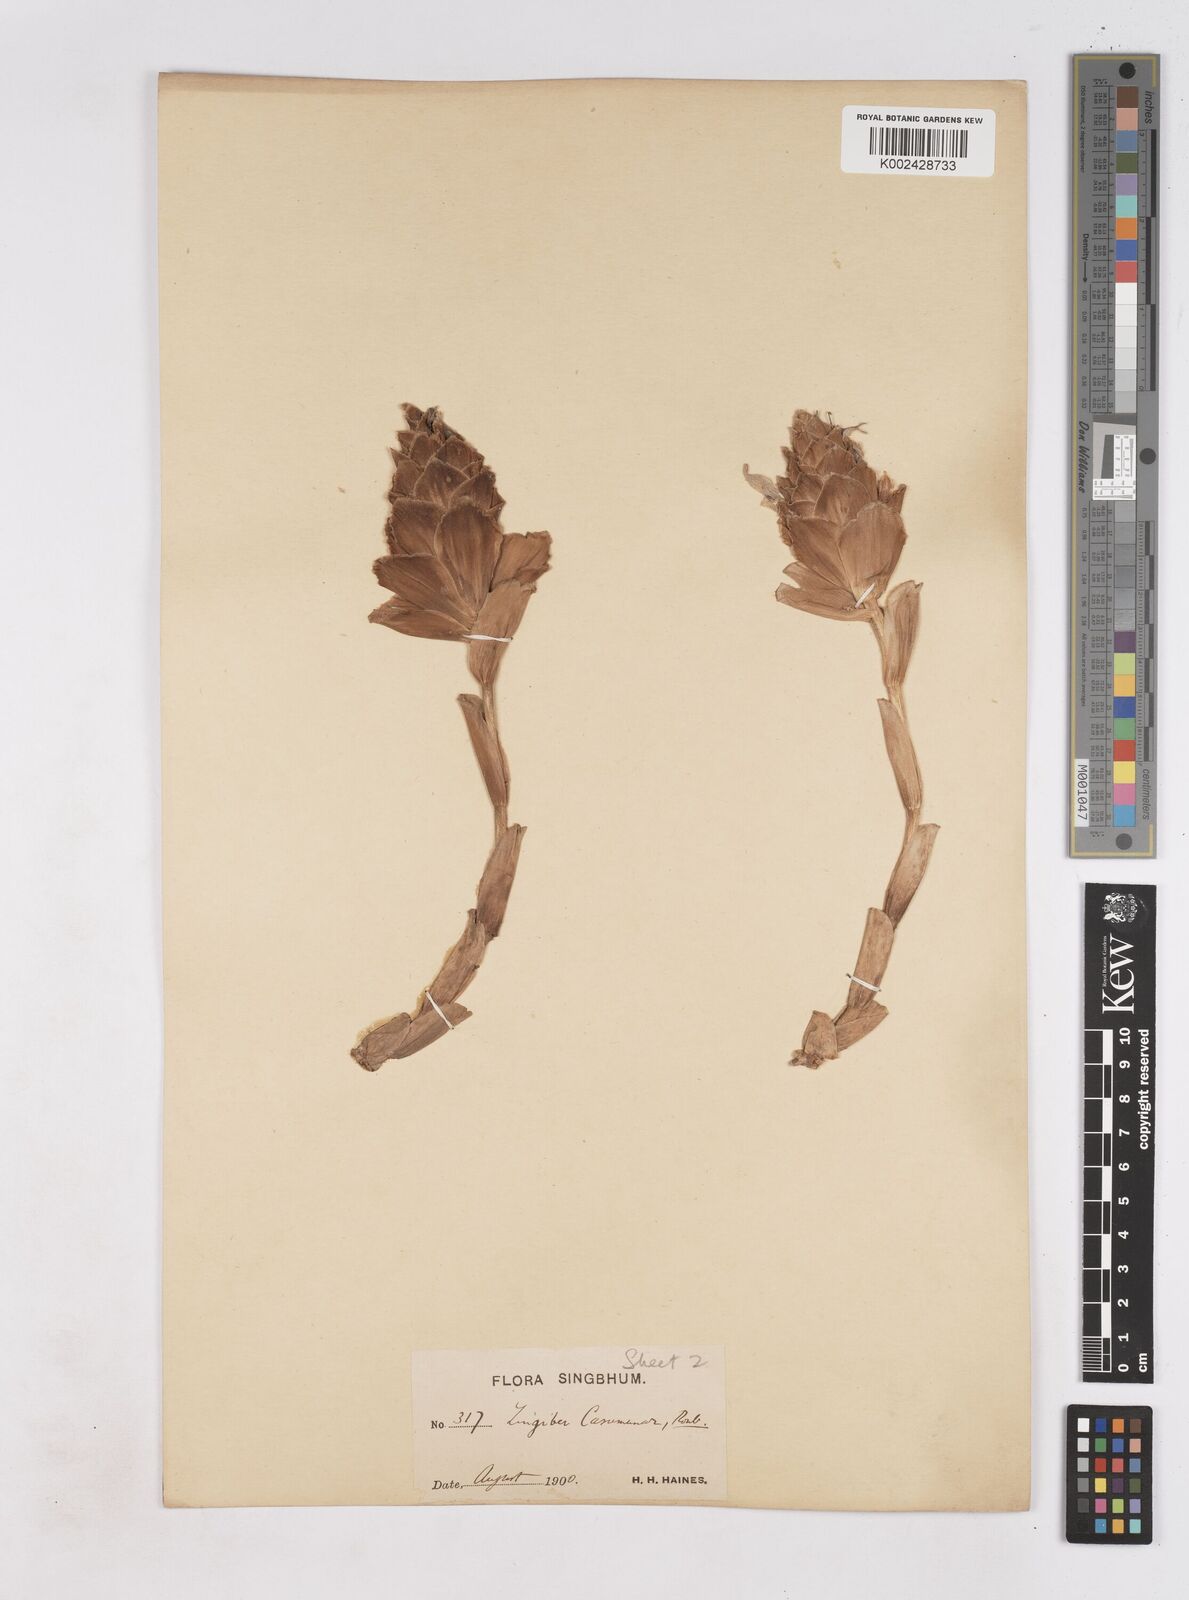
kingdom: Plantae
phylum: Tracheophyta
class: Liliopsida
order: Zingiberales
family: Zingiberaceae
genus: Zingiber
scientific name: Zingiber montanum
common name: Bengal ginger
